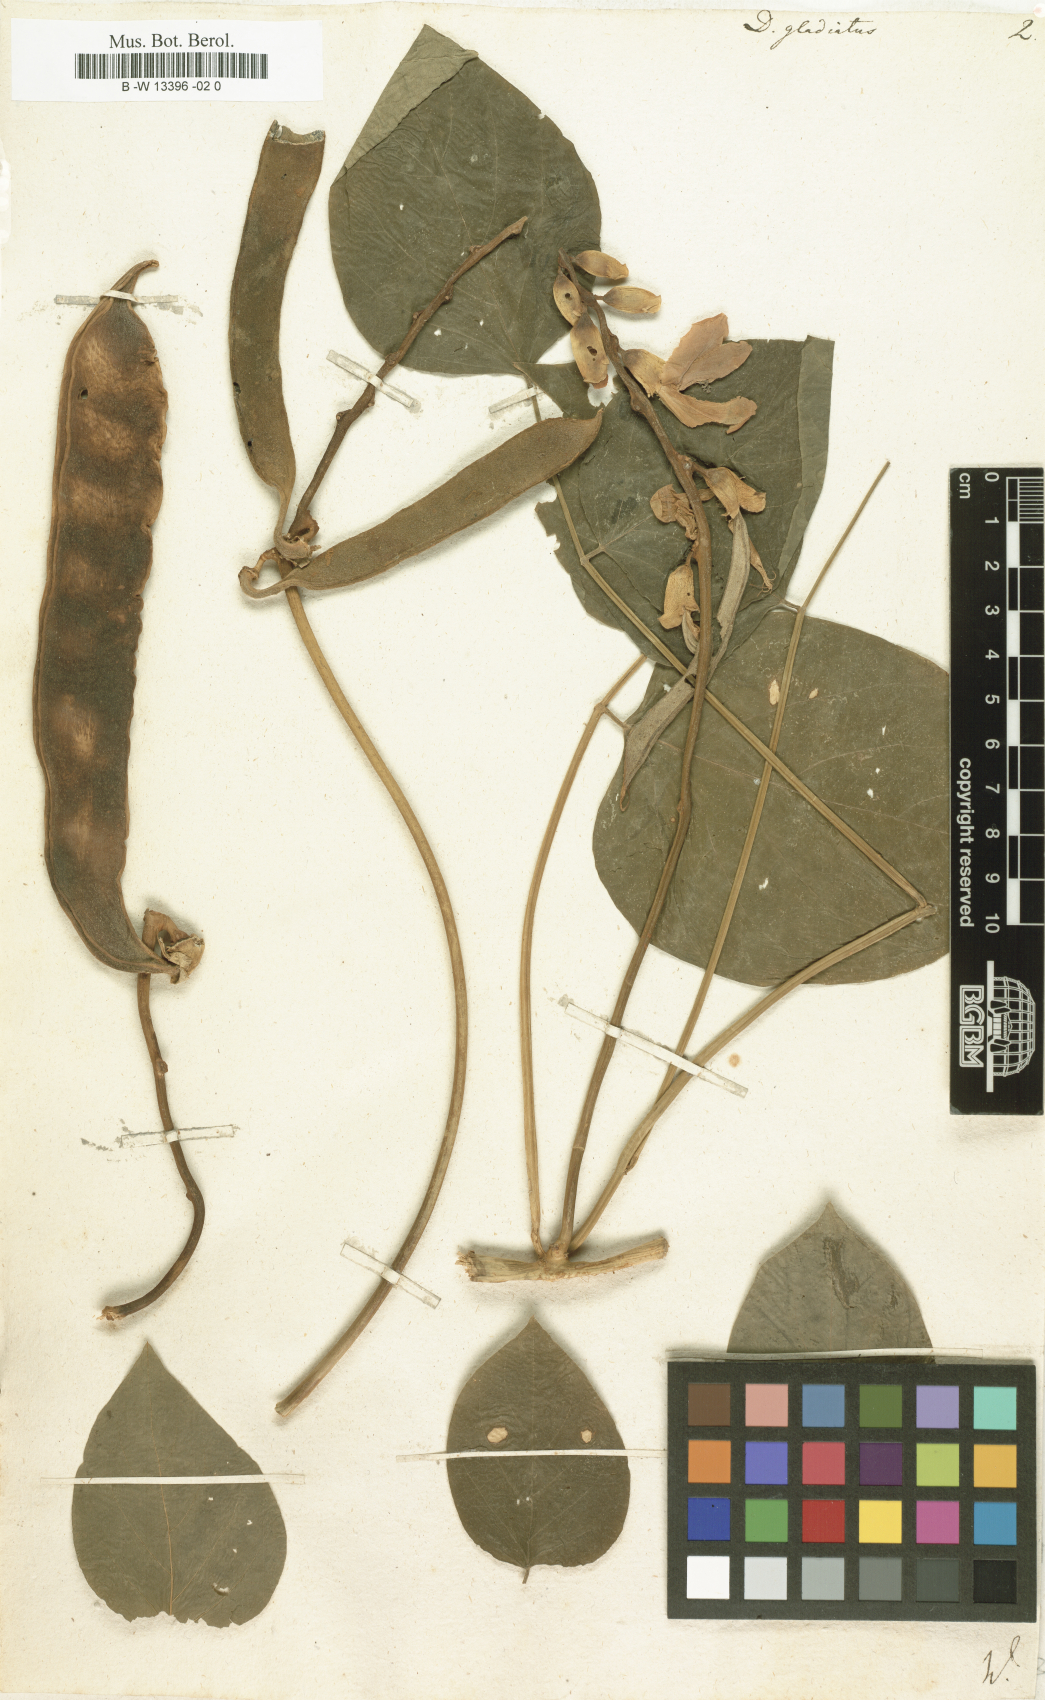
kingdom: Plantae
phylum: Tracheophyta
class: Magnoliopsida
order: Fabales
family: Fabaceae
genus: Canavalia
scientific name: Canavalia gladiata
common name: Scimitar-bean
